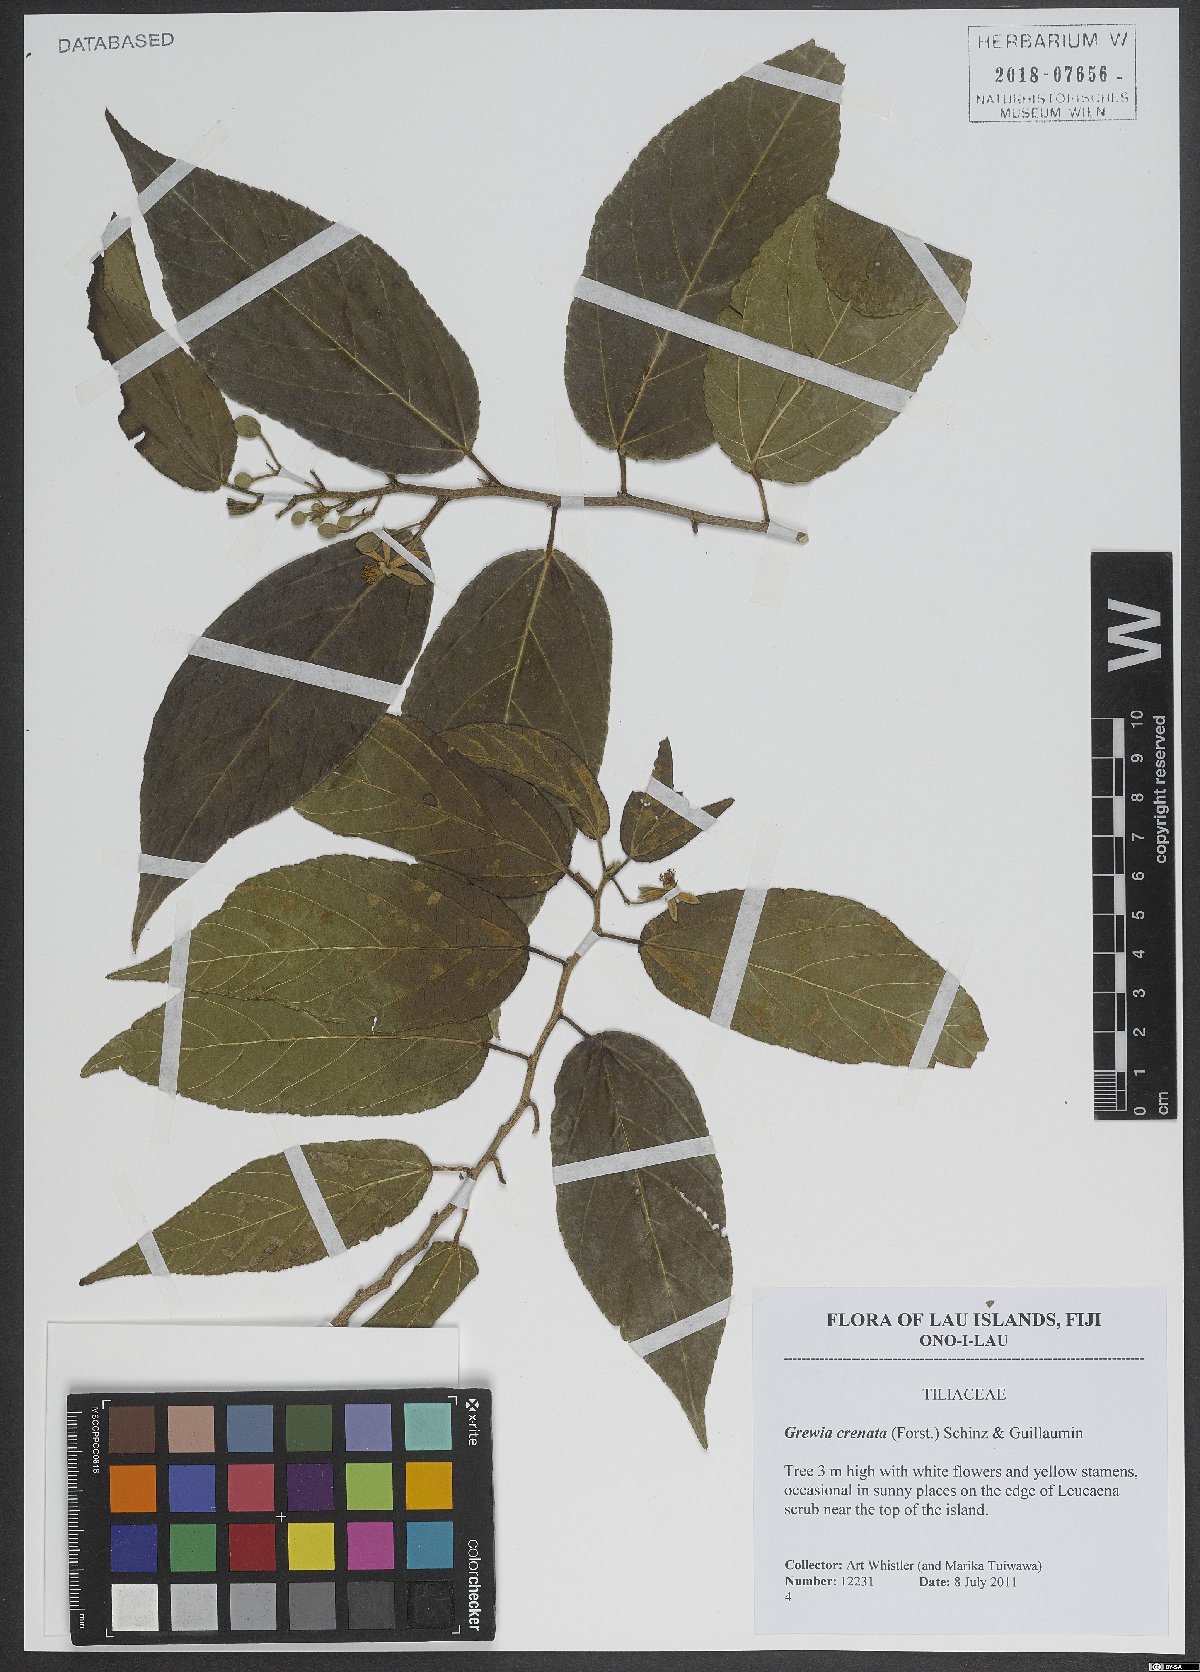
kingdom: Plantae
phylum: Tracheophyta
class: Magnoliopsida
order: Malvales
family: Malvaceae
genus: Grewia
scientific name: Grewia crenata
